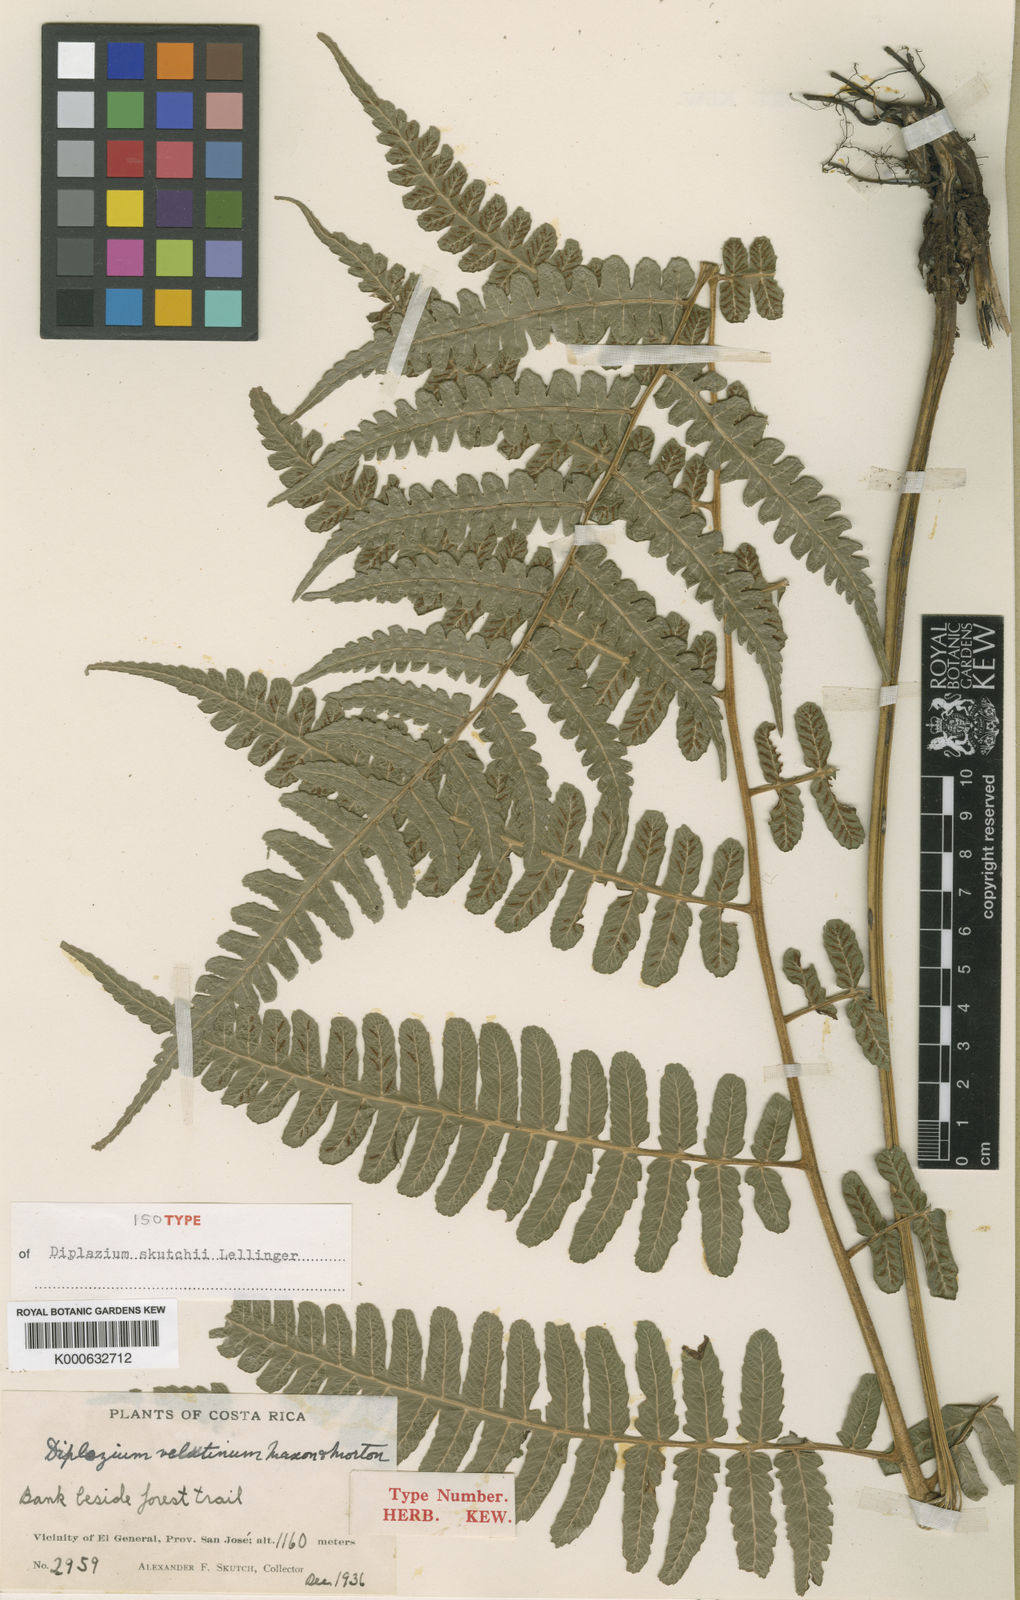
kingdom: Plantae
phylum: Tracheophyta
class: Polypodiopsida
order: Polypodiales
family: Athyriaceae
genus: Diplazium
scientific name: Diplazium skutchii
